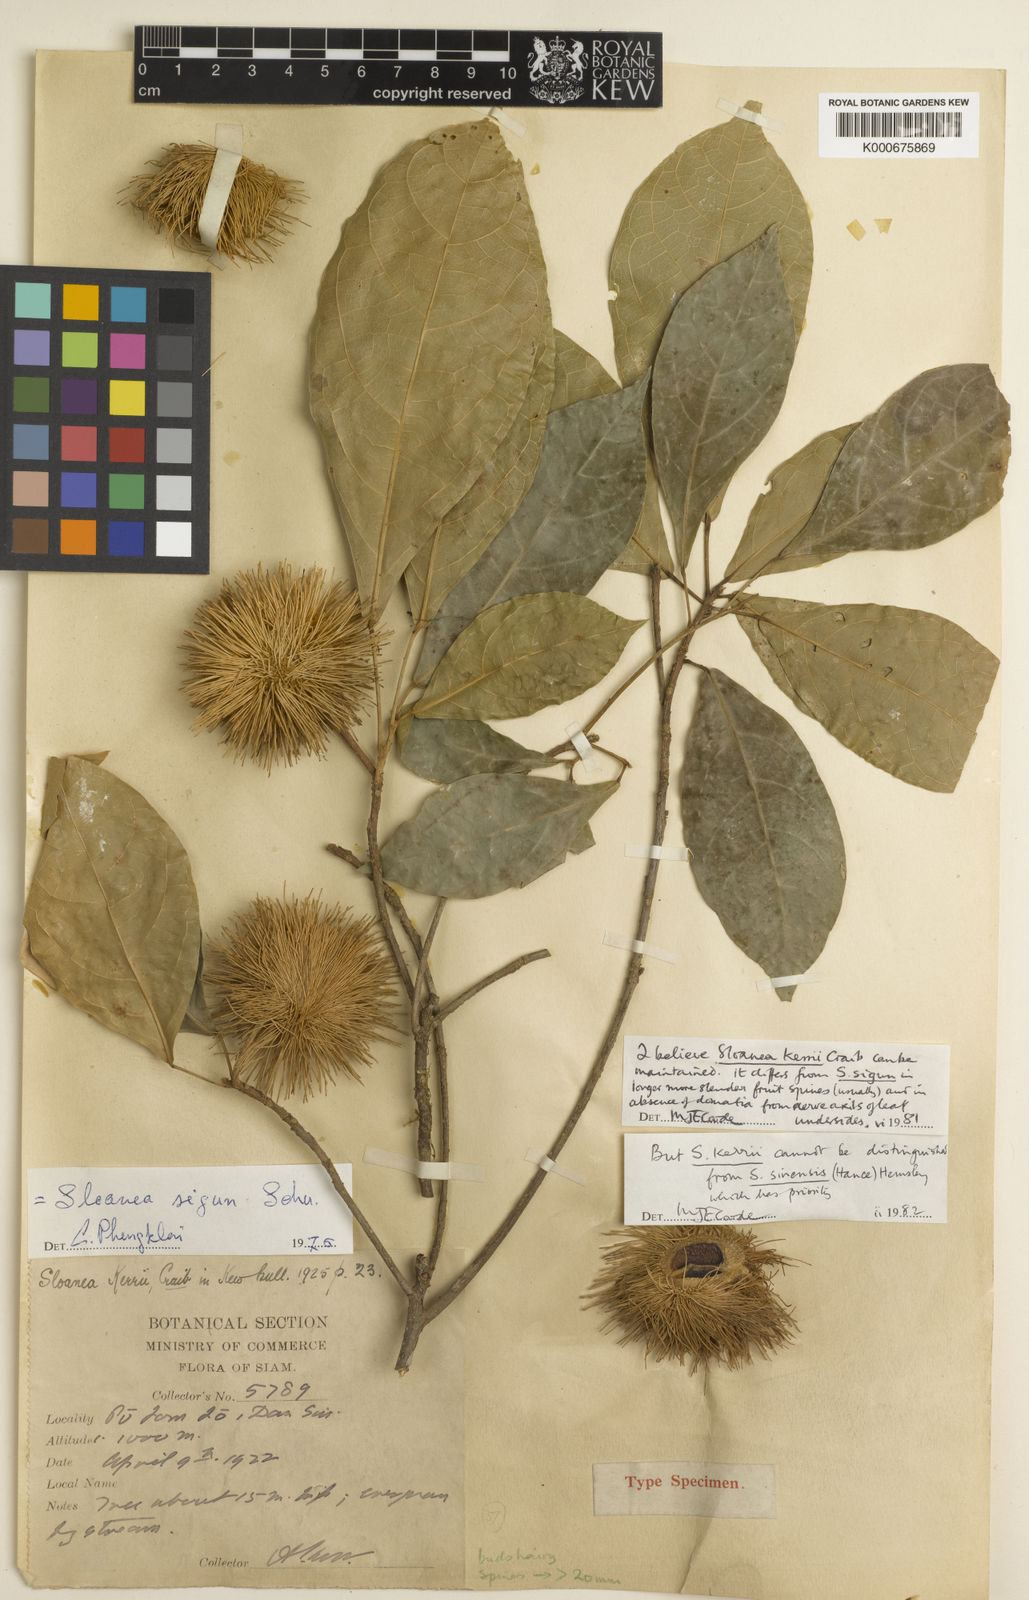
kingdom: Plantae
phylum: Tracheophyta
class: Magnoliopsida
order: Oxalidales
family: Elaeocarpaceae
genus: Sloanea
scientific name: Sloanea sinensis
